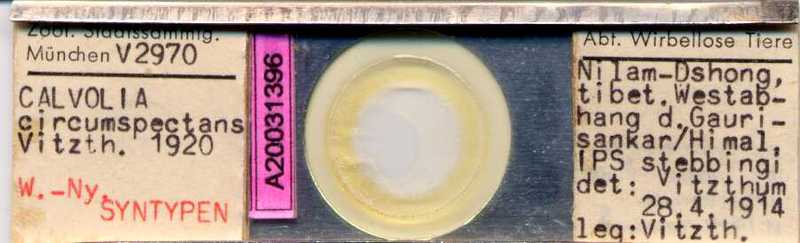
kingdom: Animalia
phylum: Arthropoda
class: Arachnida
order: Sarcoptiformes
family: Winterschmidtiidae
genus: Winterschmidtia
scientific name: Winterschmidtia circumspectans
